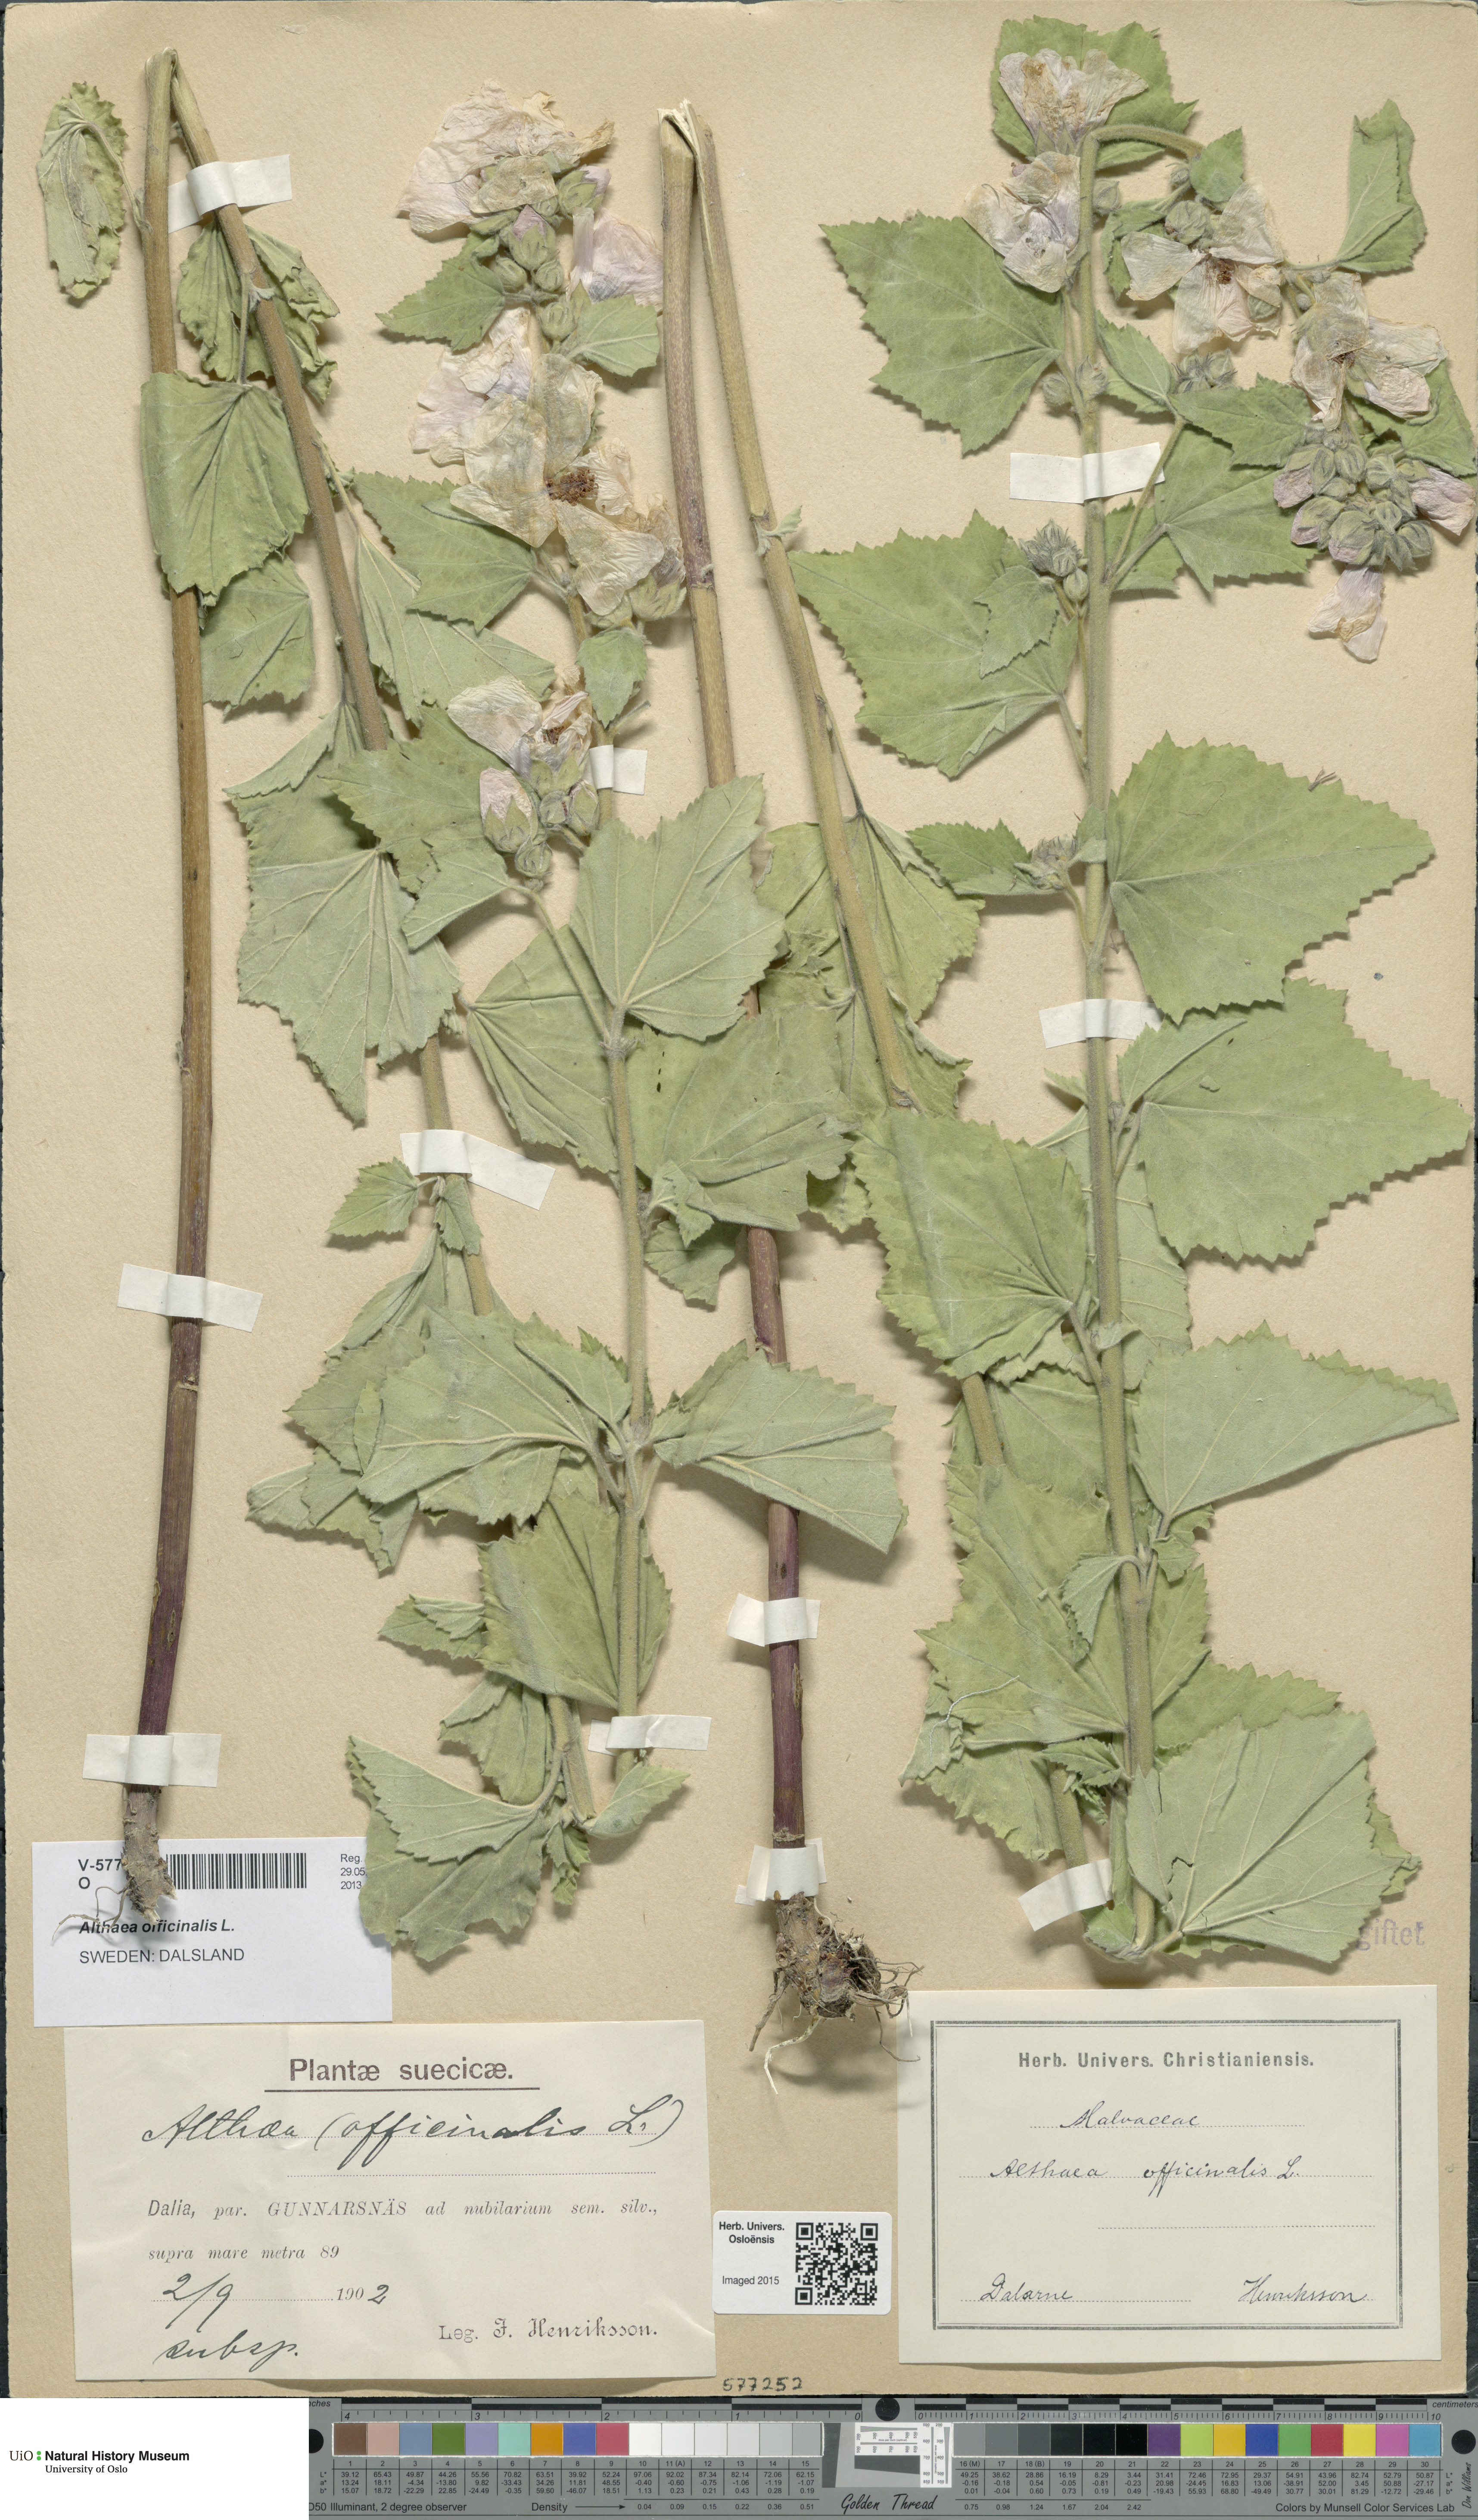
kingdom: Plantae
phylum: Tracheophyta
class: Magnoliopsida
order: Malvales
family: Malvaceae
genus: Althaea
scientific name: Althaea officinalis
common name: Marsh-mallow
